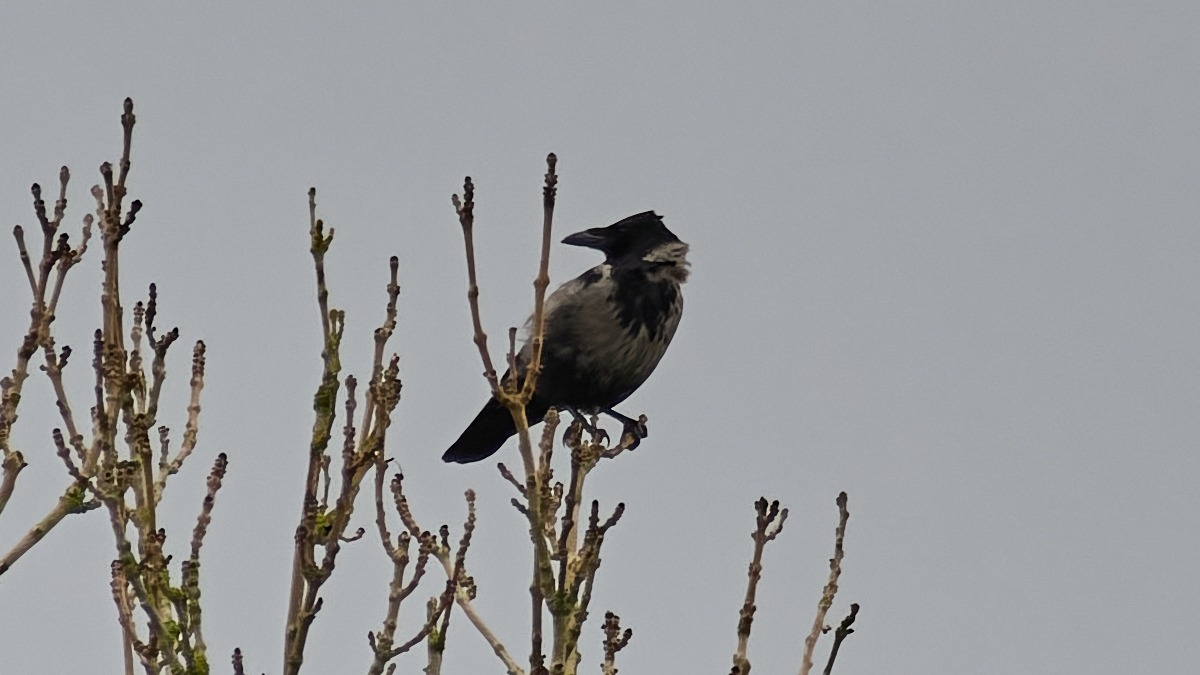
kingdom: Animalia
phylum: Chordata
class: Aves
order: Passeriformes
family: Corvidae
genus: Corvus
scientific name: Corvus cornix
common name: Gråkrage
